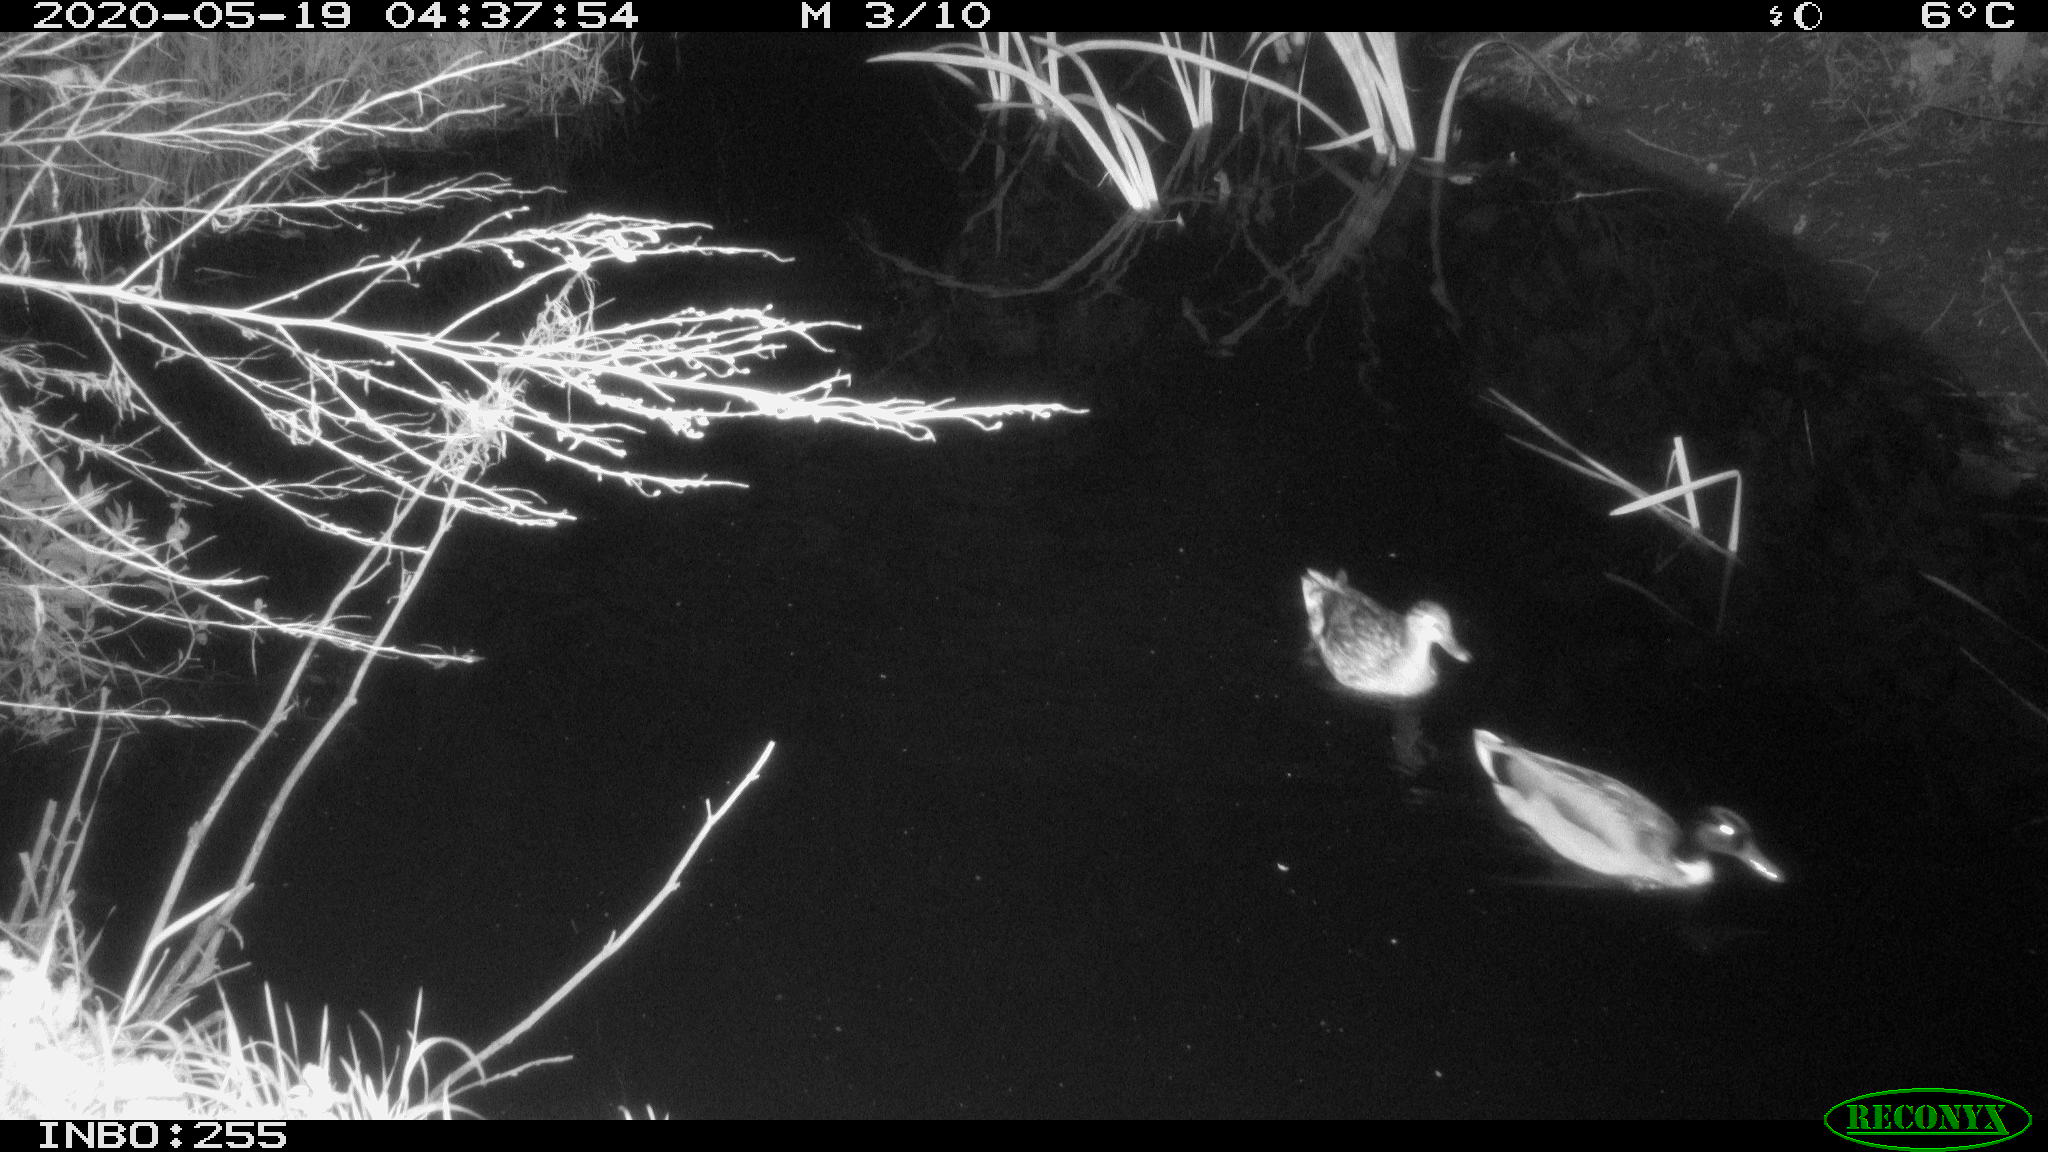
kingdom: Animalia
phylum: Chordata
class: Aves
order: Anseriformes
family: Anatidae
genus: Anas
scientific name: Anas platyrhynchos
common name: Mallard
